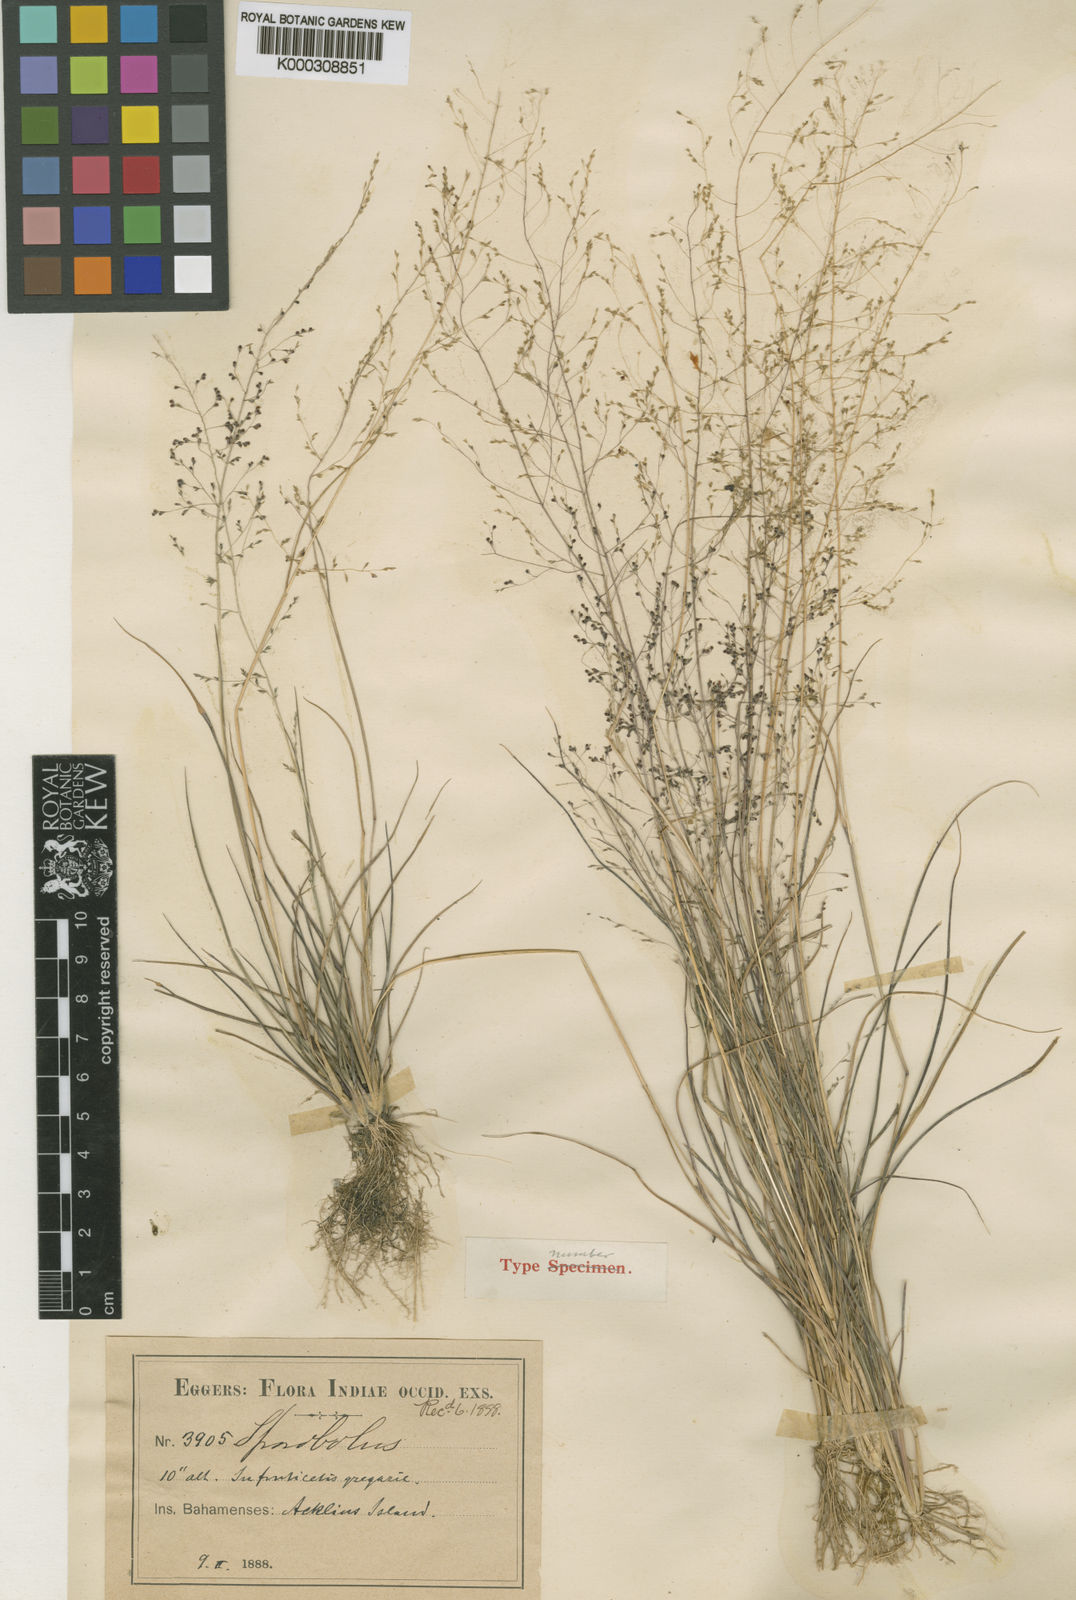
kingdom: Plantae
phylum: Tracheophyta
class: Liliopsida
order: Poales
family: Poaceae
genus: Sporobolus
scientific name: Sporobolus bahamensis
